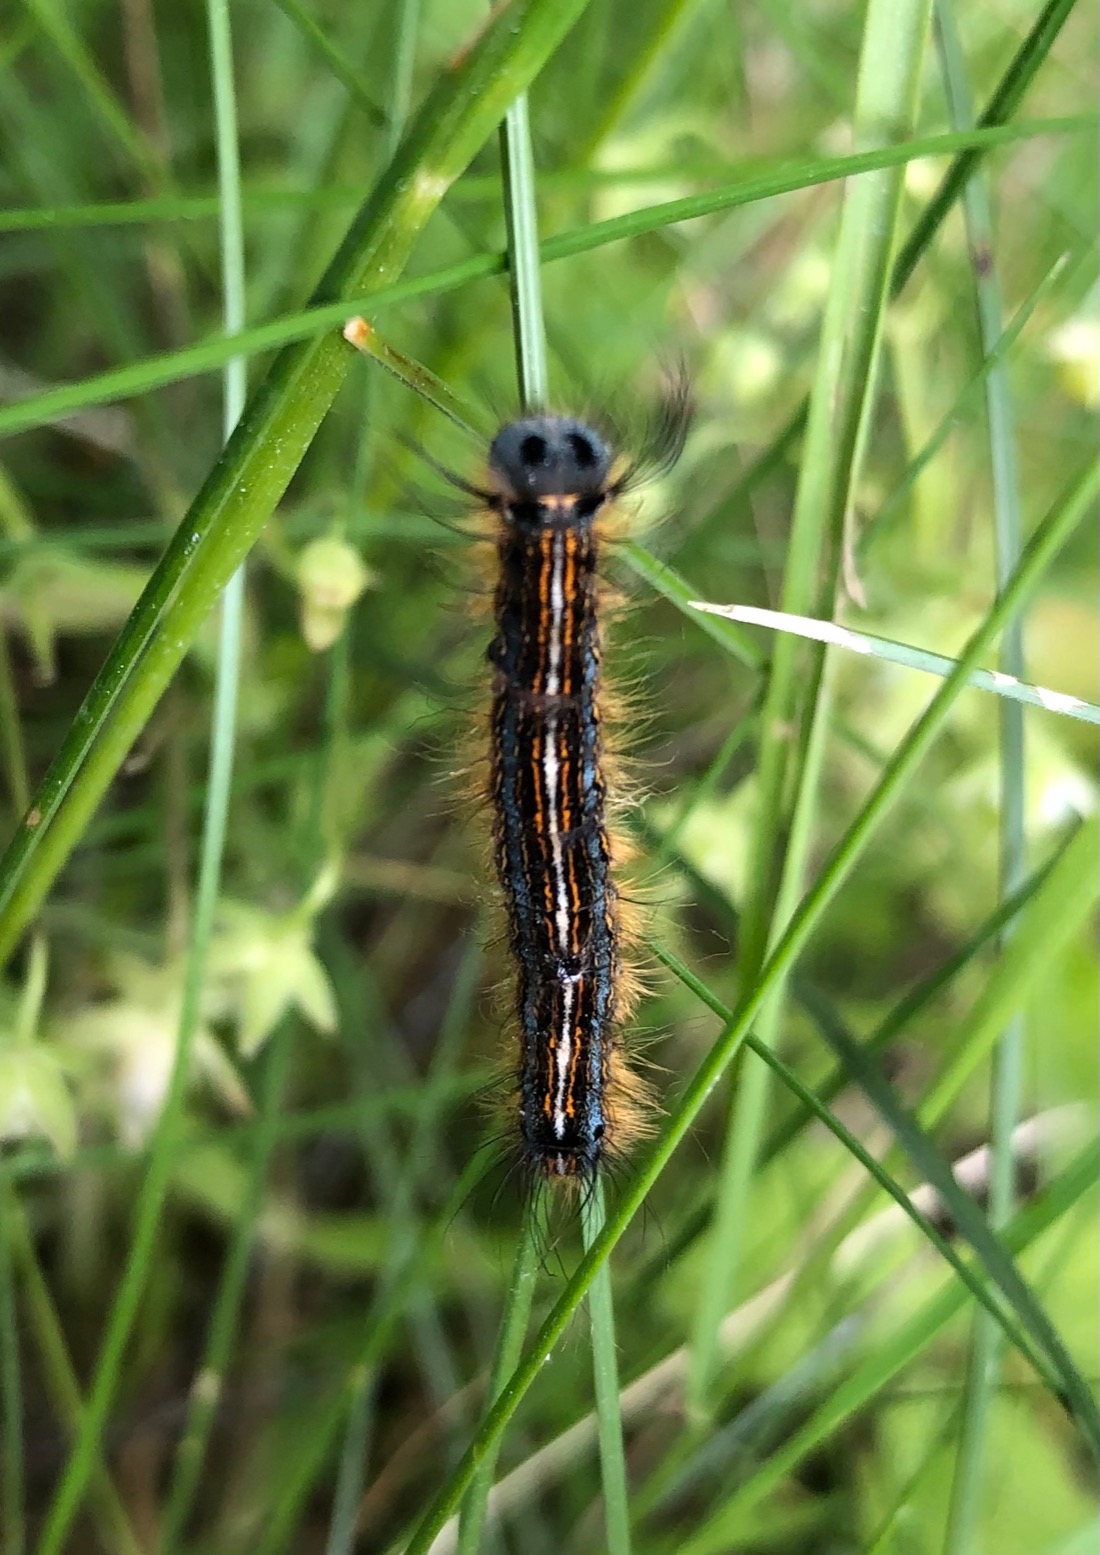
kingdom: Animalia
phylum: Arthropoda
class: Insecta
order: Lepidoptera
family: Lasiocampidae
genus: Malacosoma
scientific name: Malacosoma neustria
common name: Ringspinder
